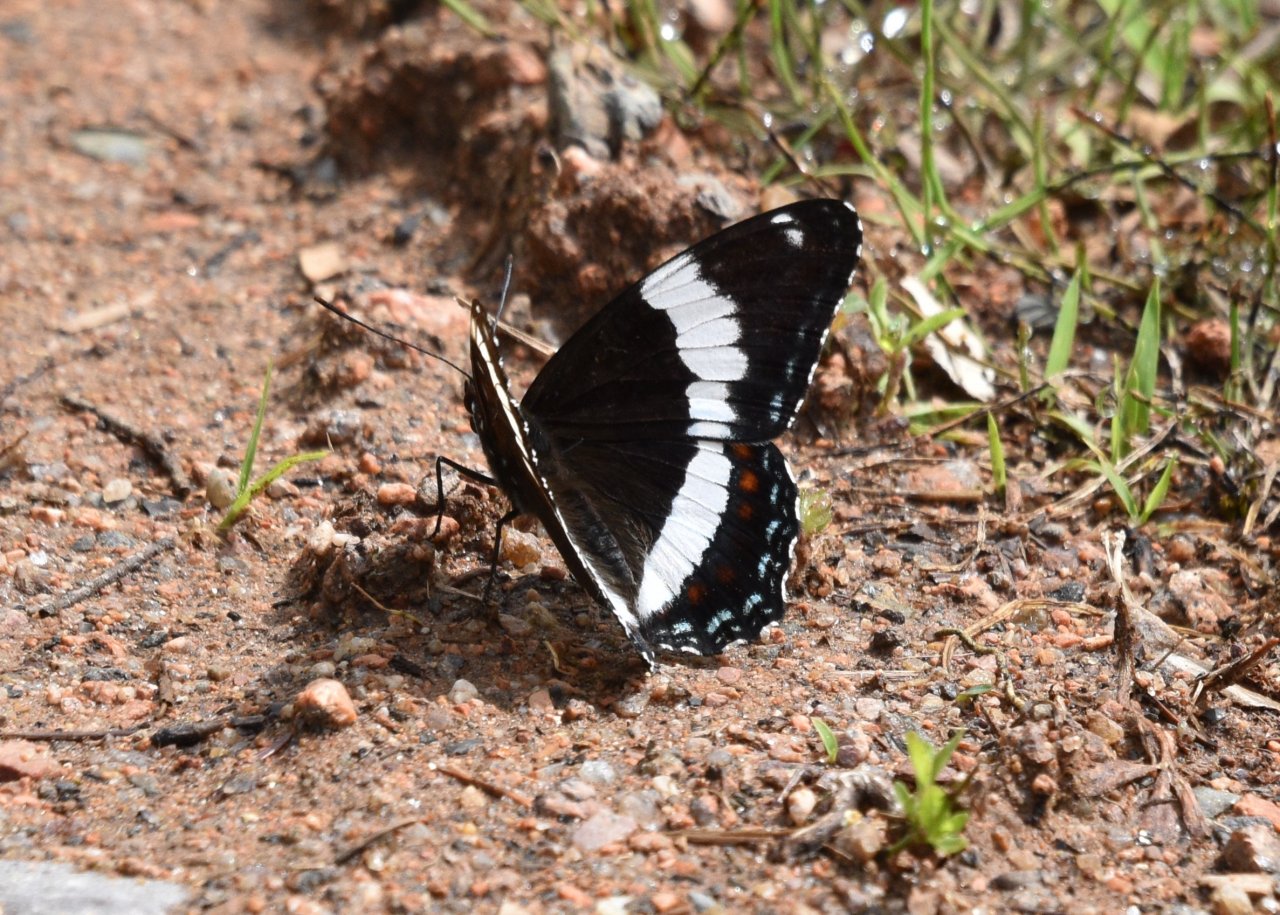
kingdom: Animalia
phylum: Arthropoda
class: Insecta
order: Lepidoptera
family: Nymphalidae
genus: Limenitis
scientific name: Limenitis arthemis
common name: Red-spotted Admiral
